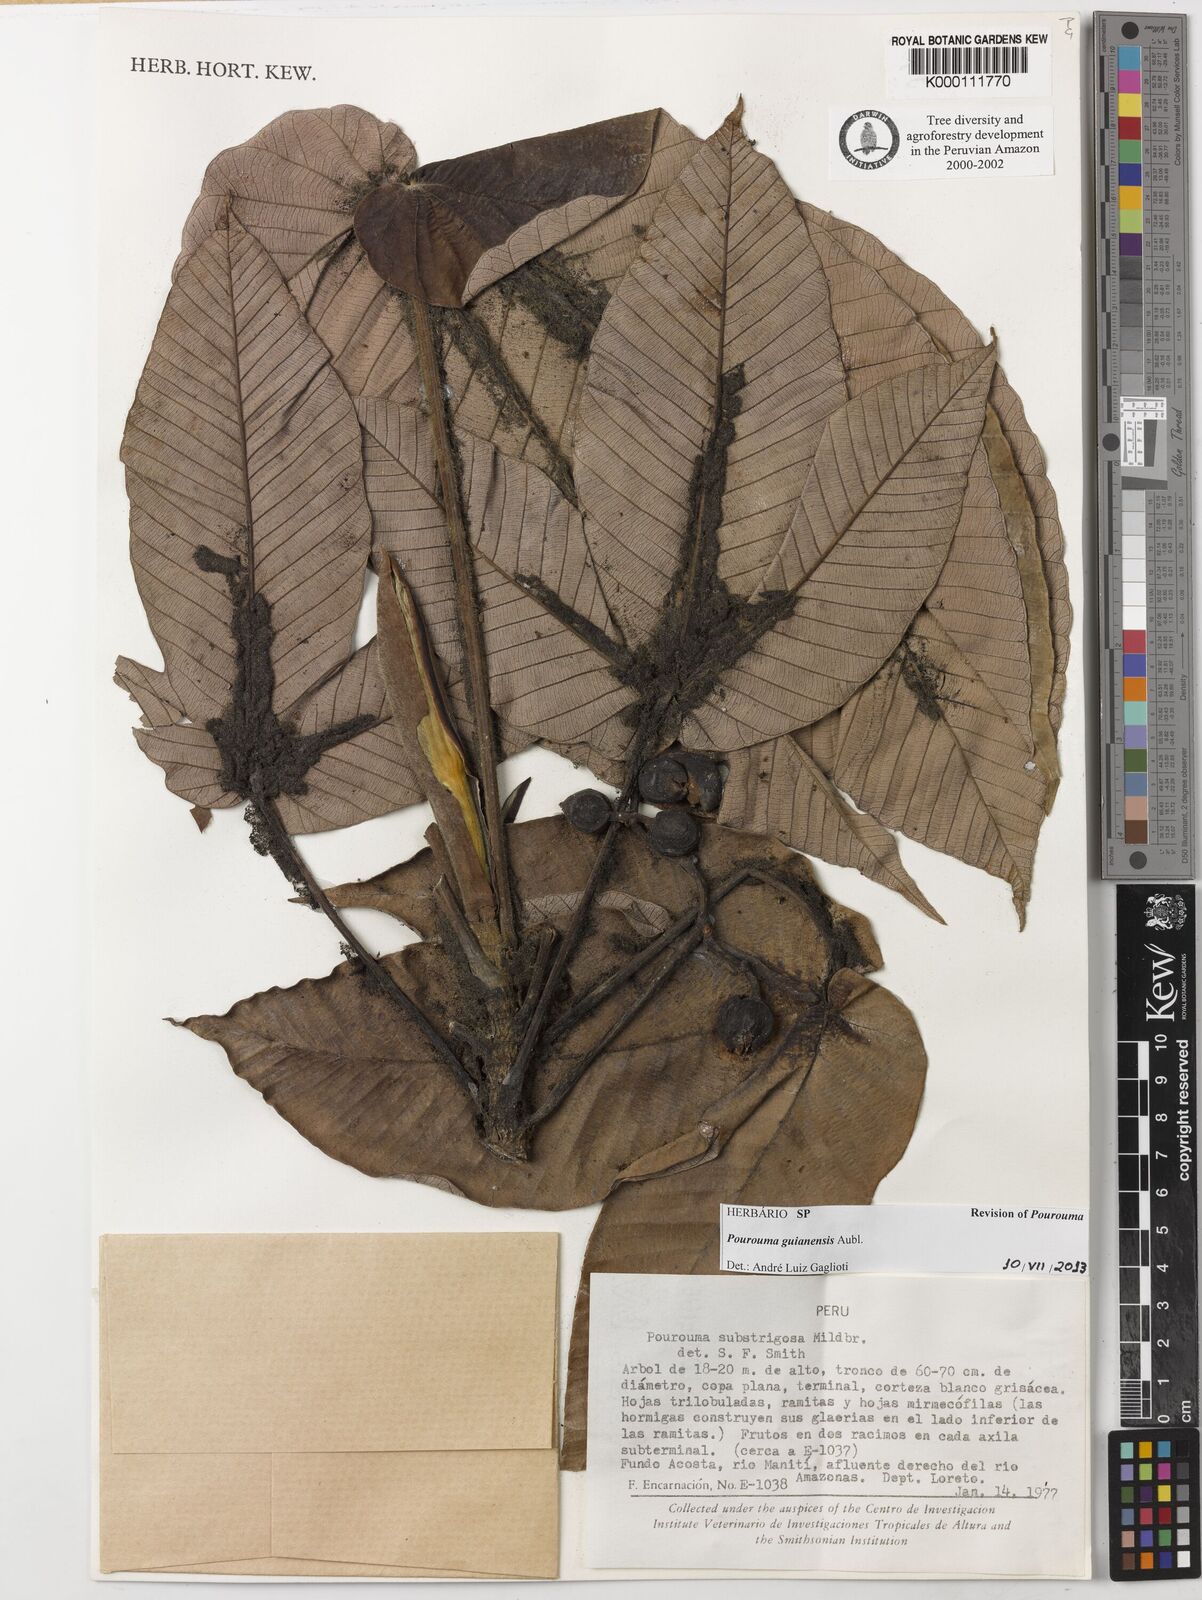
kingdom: Plantae
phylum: Tracheophyta
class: Magnoliopsida
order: Rosales
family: Urticaceae
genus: Pourouma
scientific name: Pourouma guianensis
